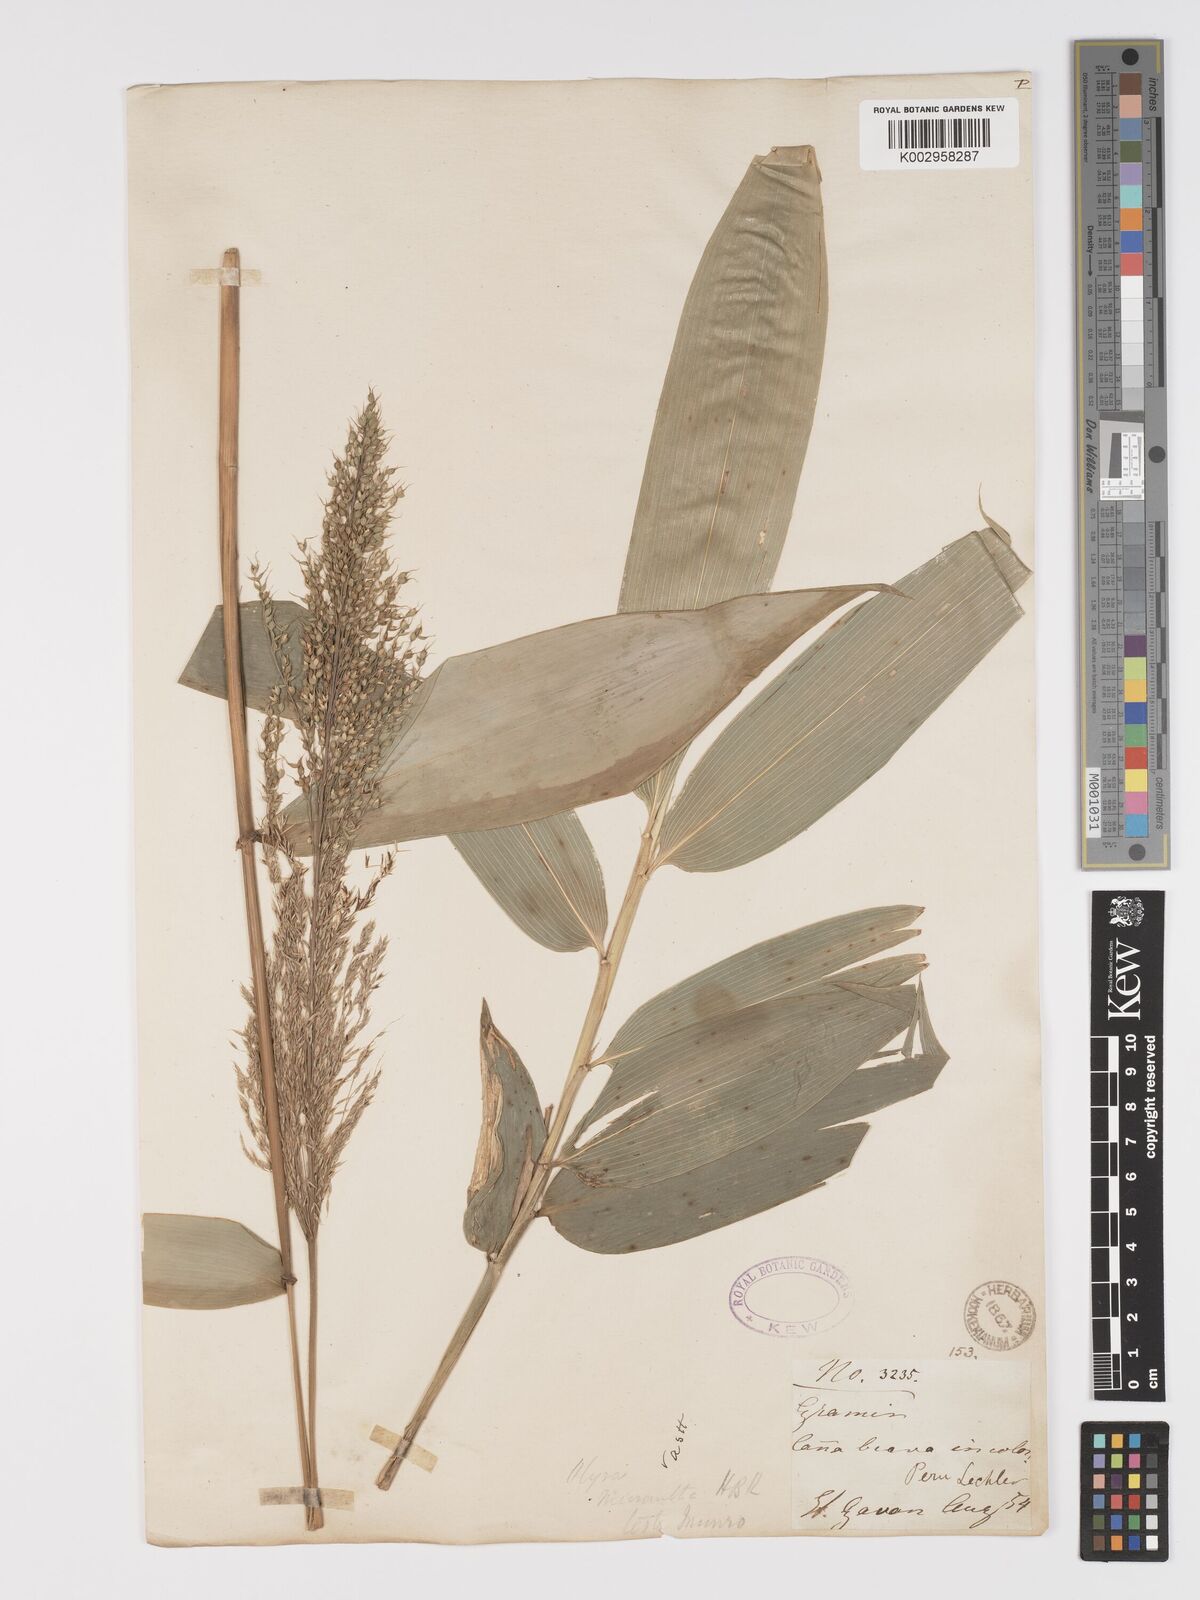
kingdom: Plantae
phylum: Tracheophyta
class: Liliopsida
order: Poales
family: Poaceae
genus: Taquara
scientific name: Taquara micrantha
